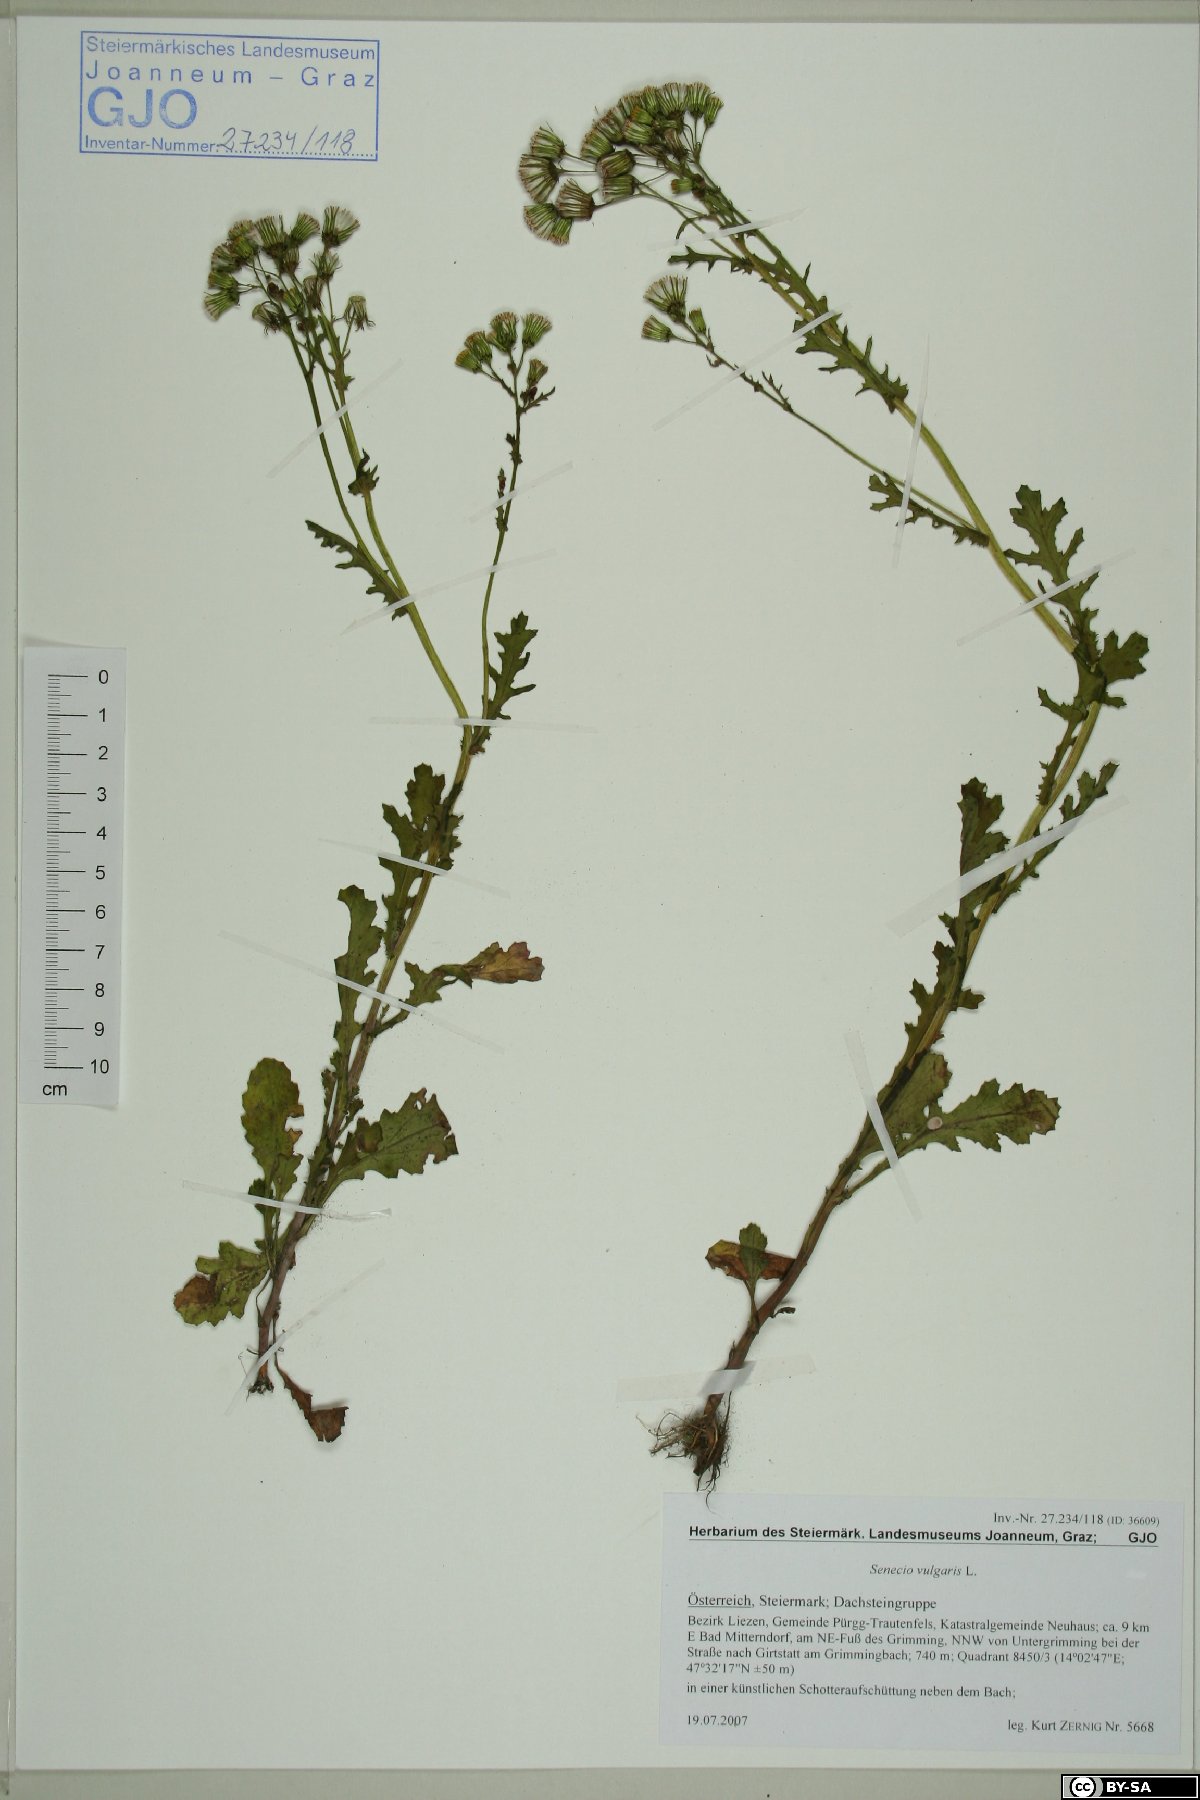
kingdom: Plantae
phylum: Tracheophyta
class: Magnoliopsida
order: Asterales
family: Asteraceae
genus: Senecio
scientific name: Senecio vulgaris
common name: Old-man-in-the-spring
